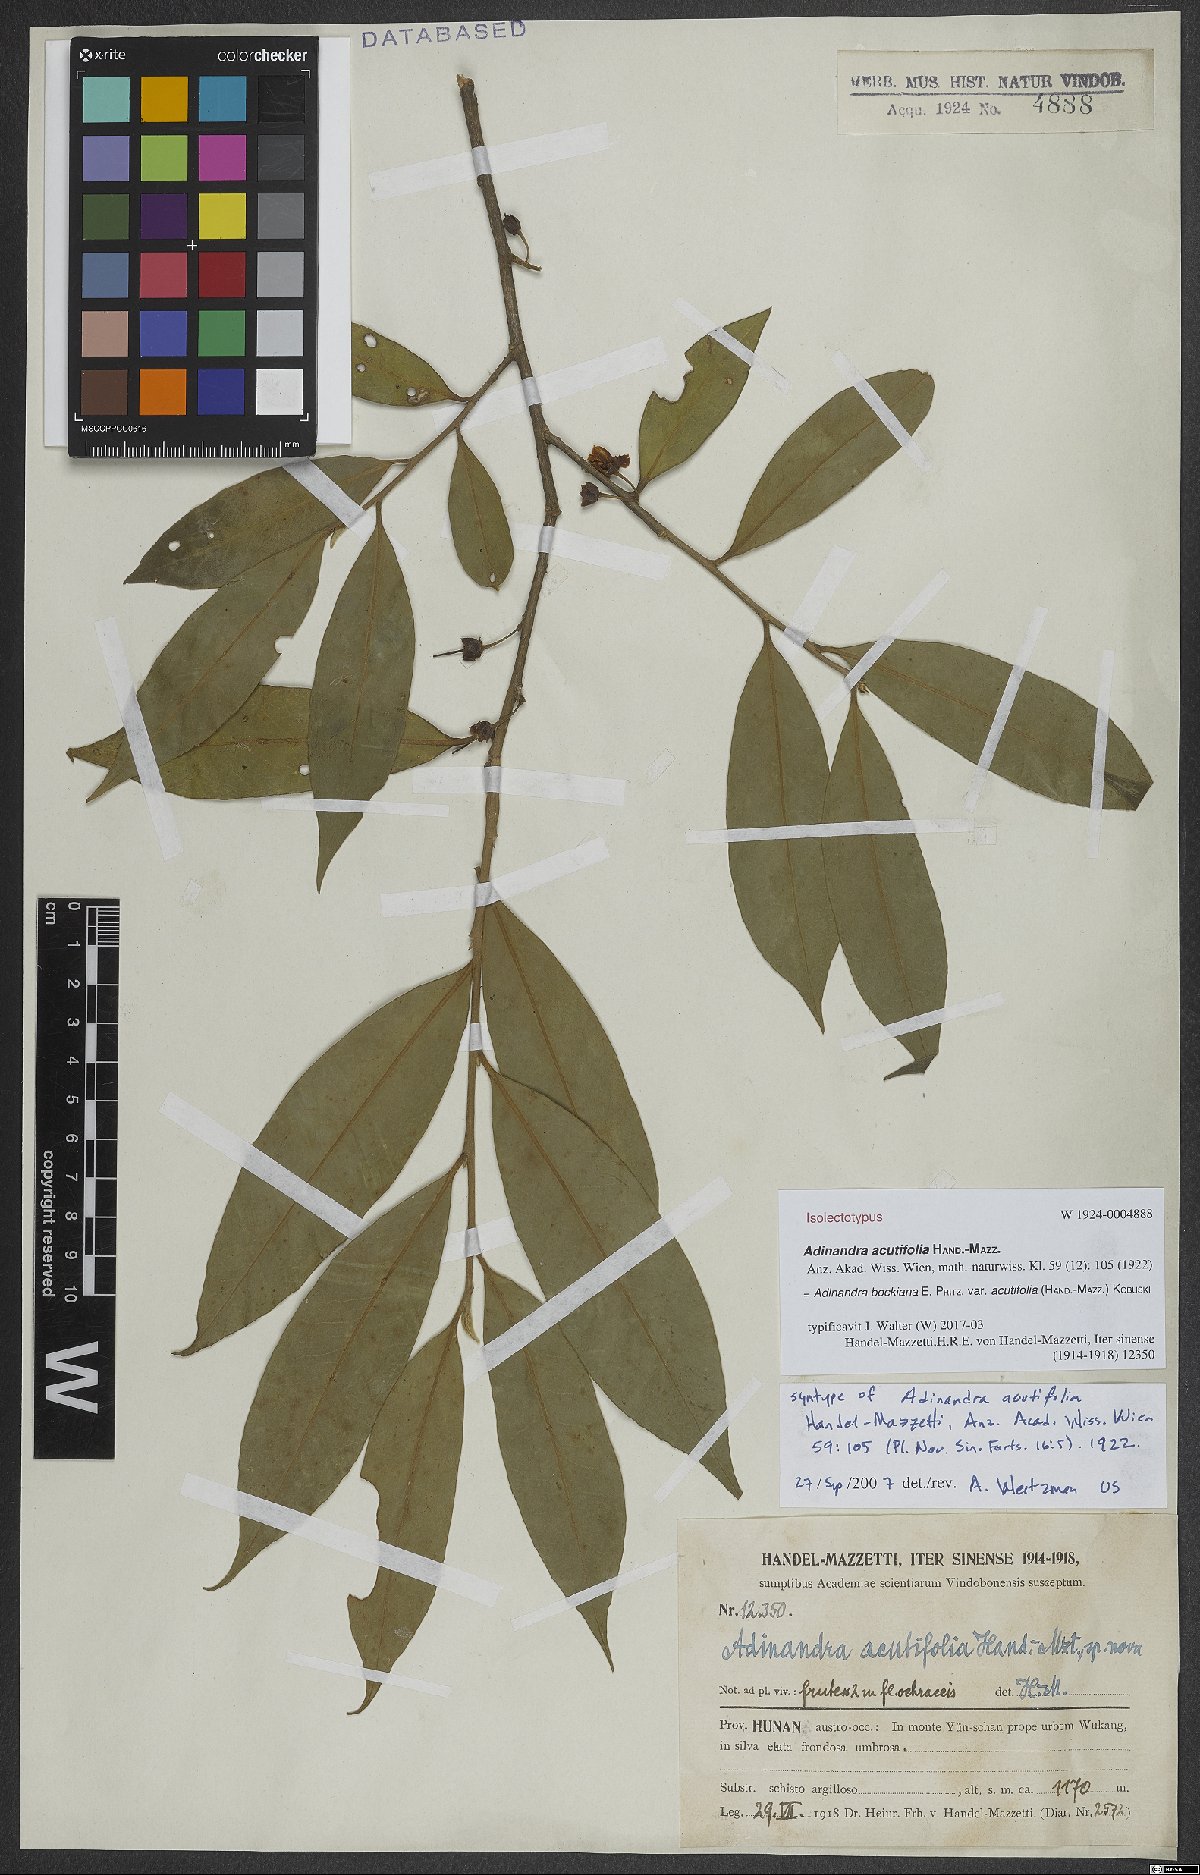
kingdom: Plantae
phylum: Tracheophyta
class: Magnoliopsida
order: Ericales
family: Pentaphylacaceae
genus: Adinandra
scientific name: Adinandra bockiana
